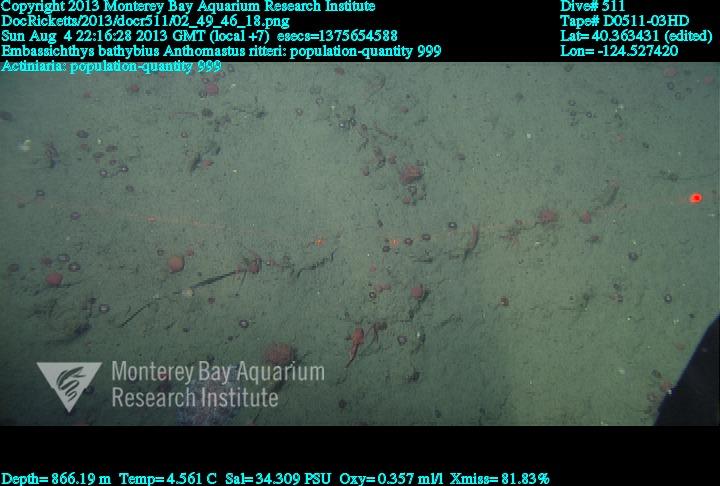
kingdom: Animalia
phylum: Cnidaria
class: Anthozoa
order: Scleralcyonacea
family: Coralliidae
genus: Heteropolypus
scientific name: Heteropolypus ritteri
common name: Ritter's soft coral
